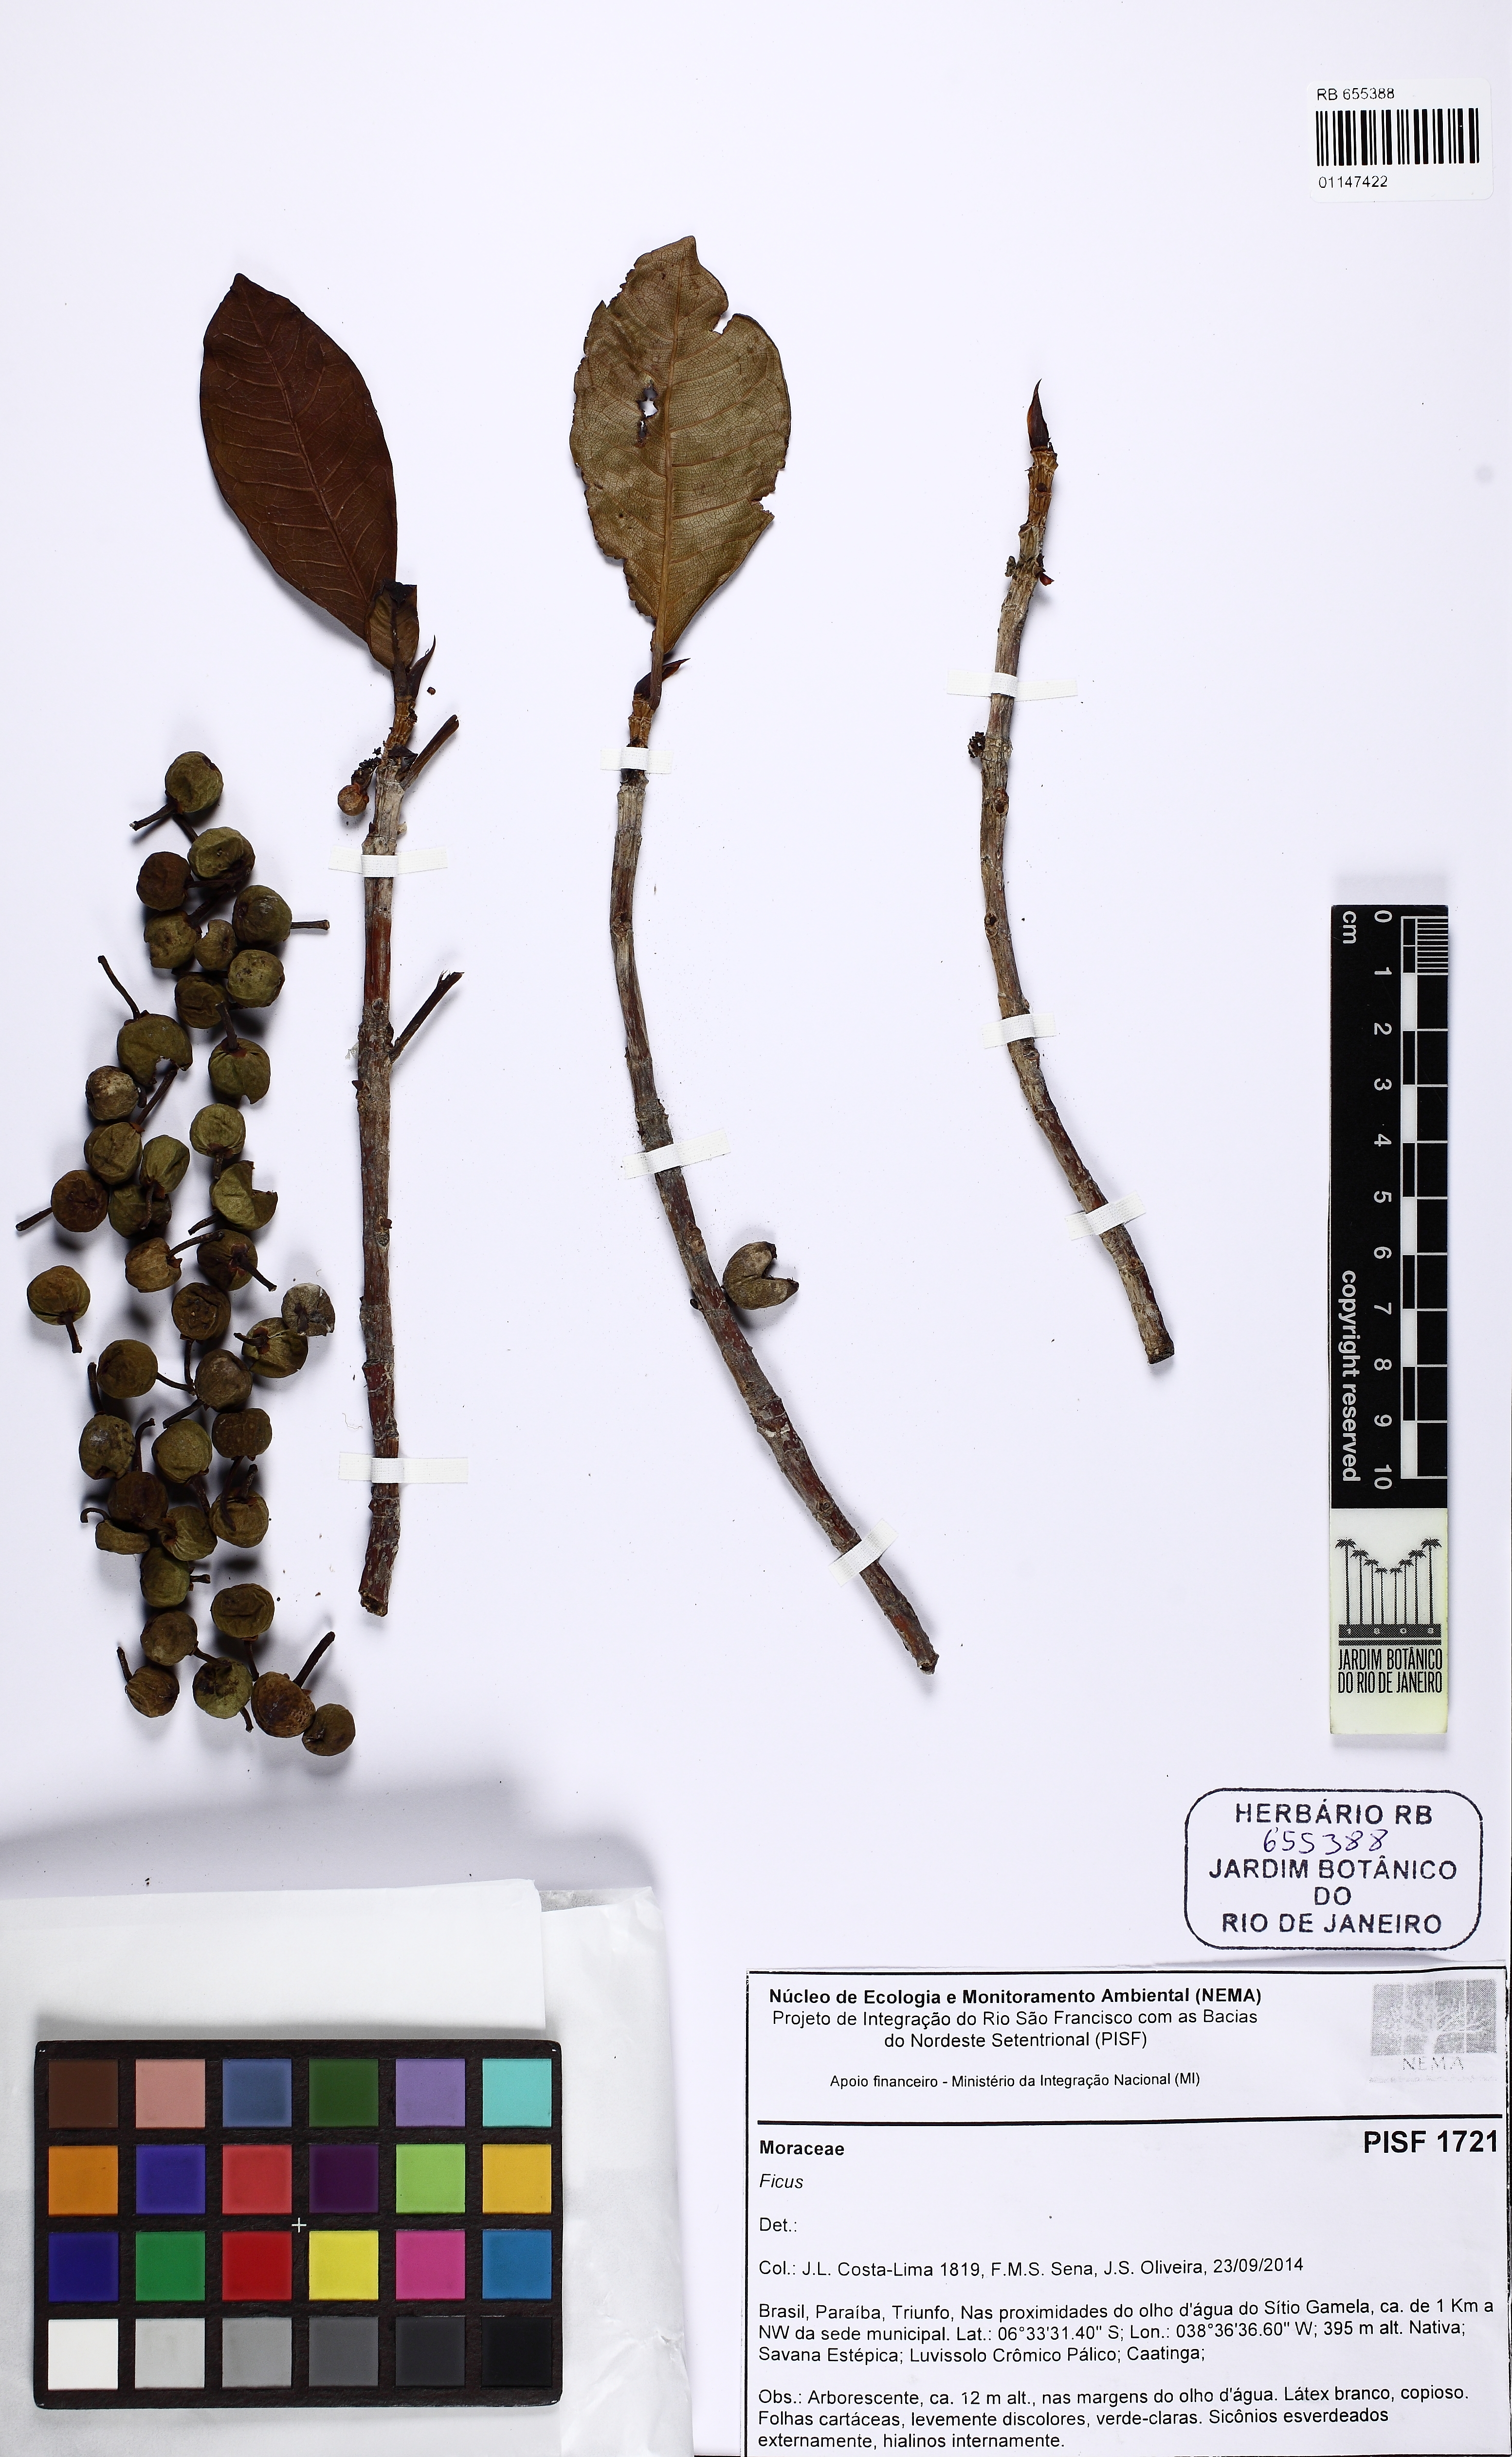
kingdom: Plantae
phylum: Tracheophyta
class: Magnoliopsida
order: Rosales
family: Moraceae
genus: Ficus
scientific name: Ficus bahiensis
